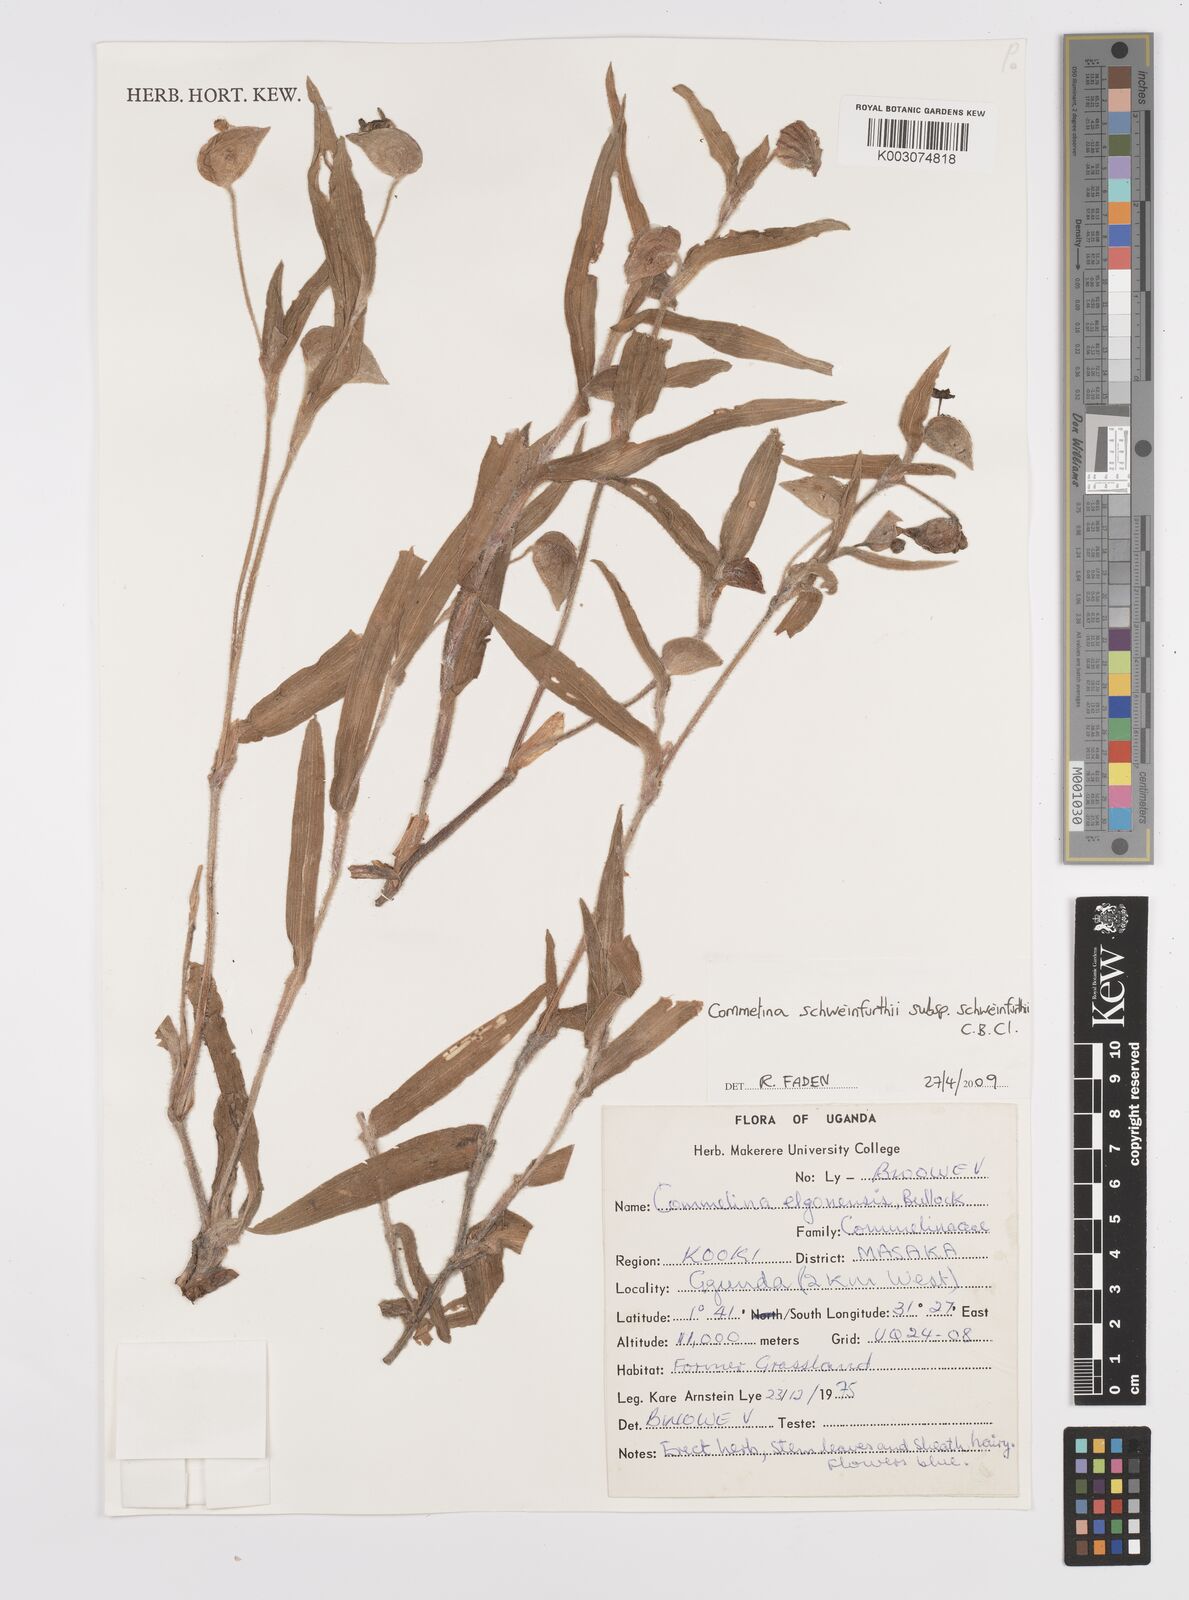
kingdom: Plantae
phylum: Tracheophyta
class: Liliopsida
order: Commelinales
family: Commelinaceae
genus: Commelina
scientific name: Commelina schweinfurthii
